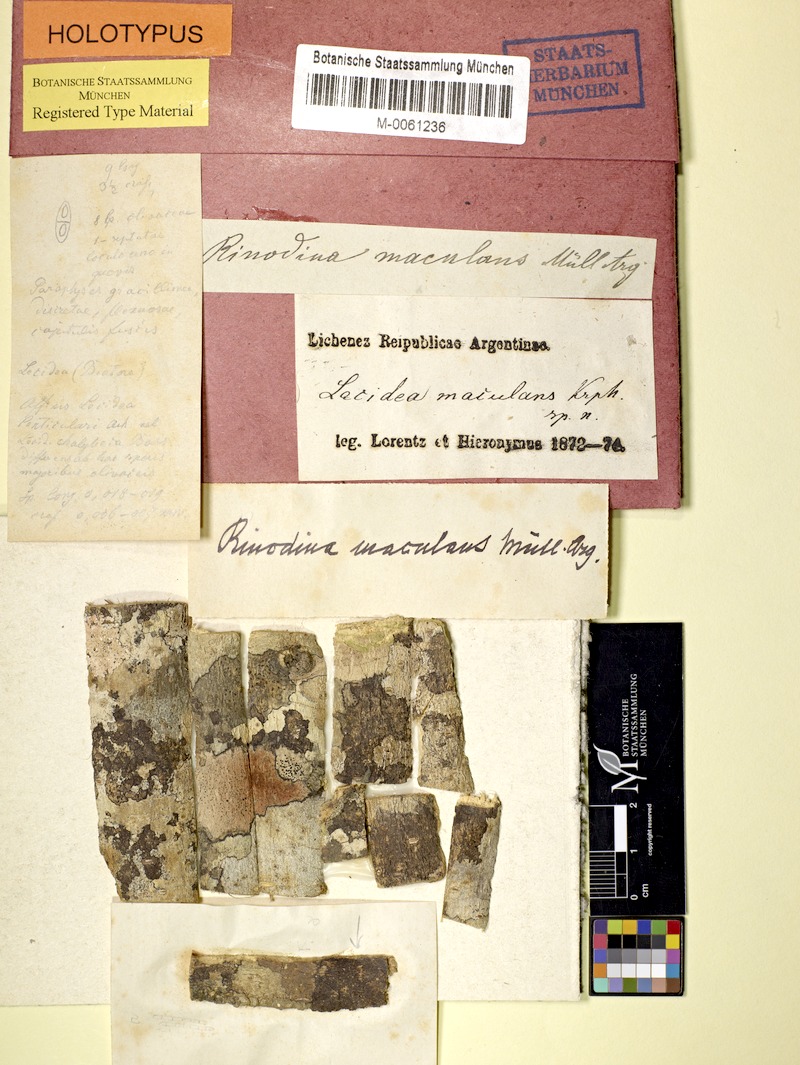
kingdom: Fungi
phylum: Ascomycota
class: Lecanoromycetes
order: Caliciales
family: Physciaceae
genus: Rinodina
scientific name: Rinodina maculans
